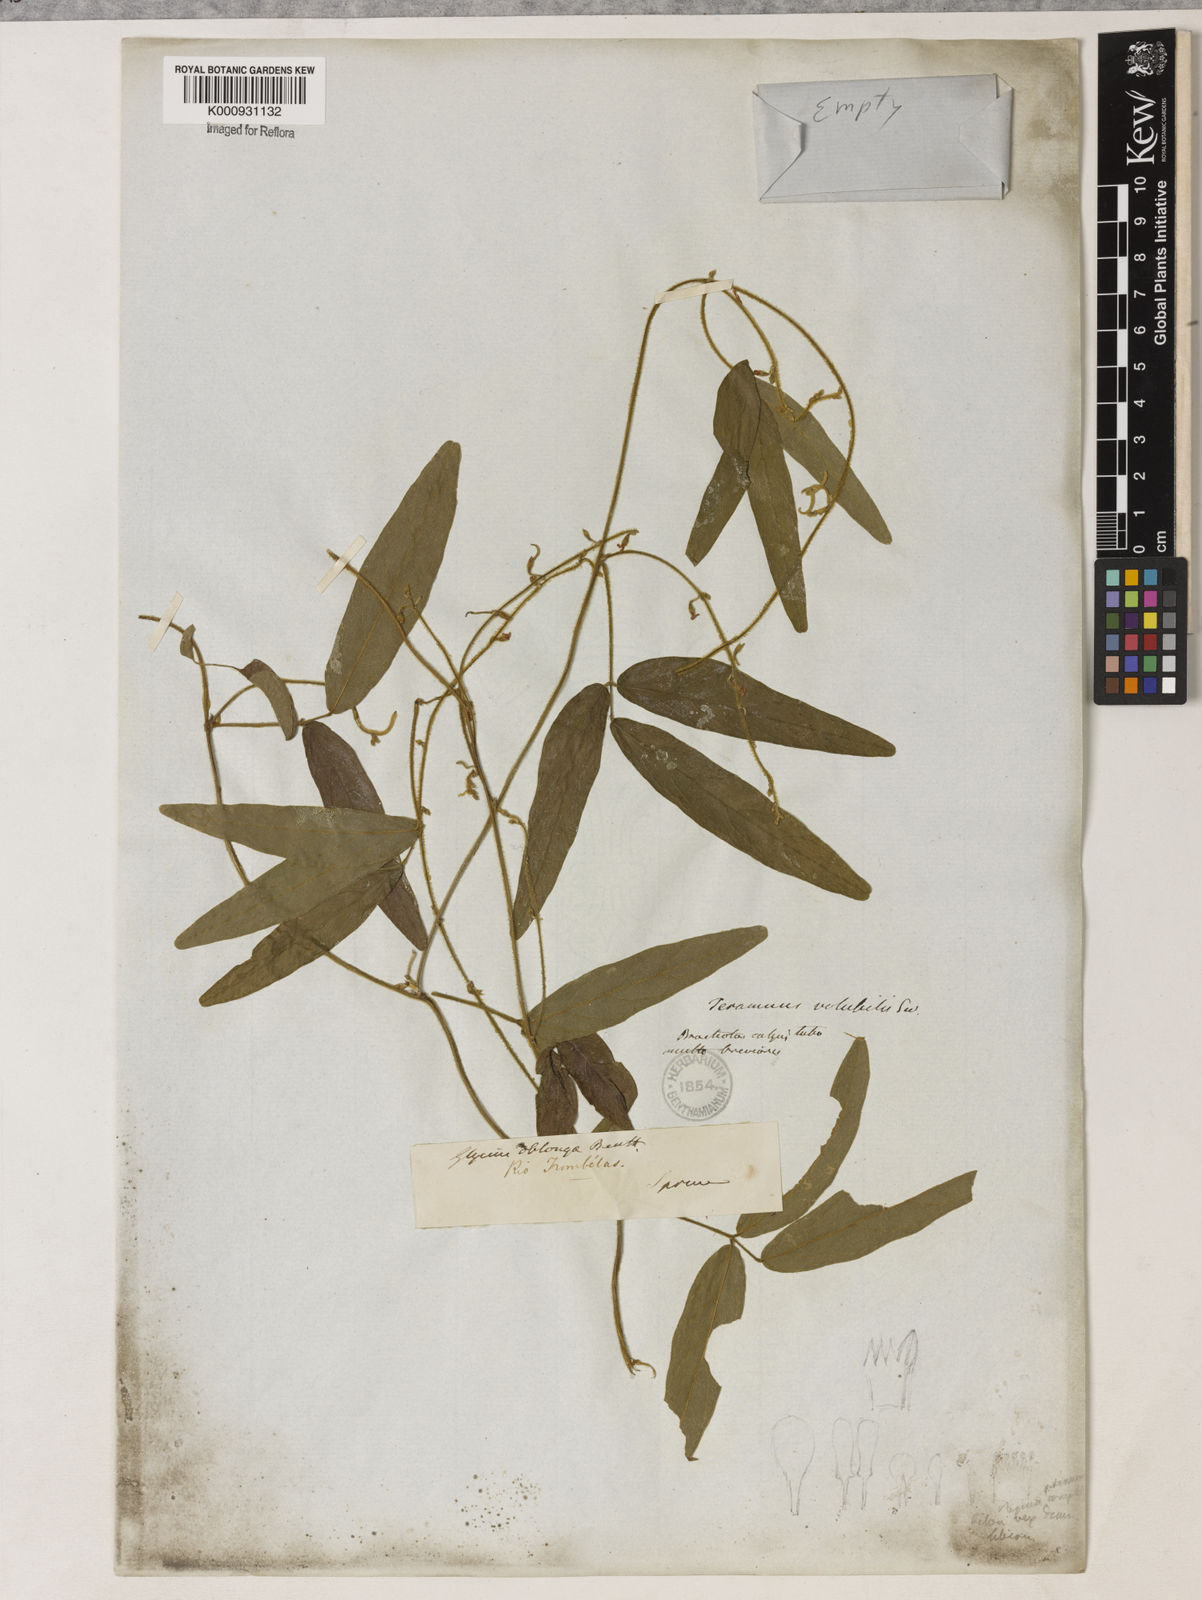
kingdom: Plantae
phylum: Tracheophyta
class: Magnoliopsida
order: Fabales
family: Fabaceae
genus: Teramnus
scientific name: Teramnus
